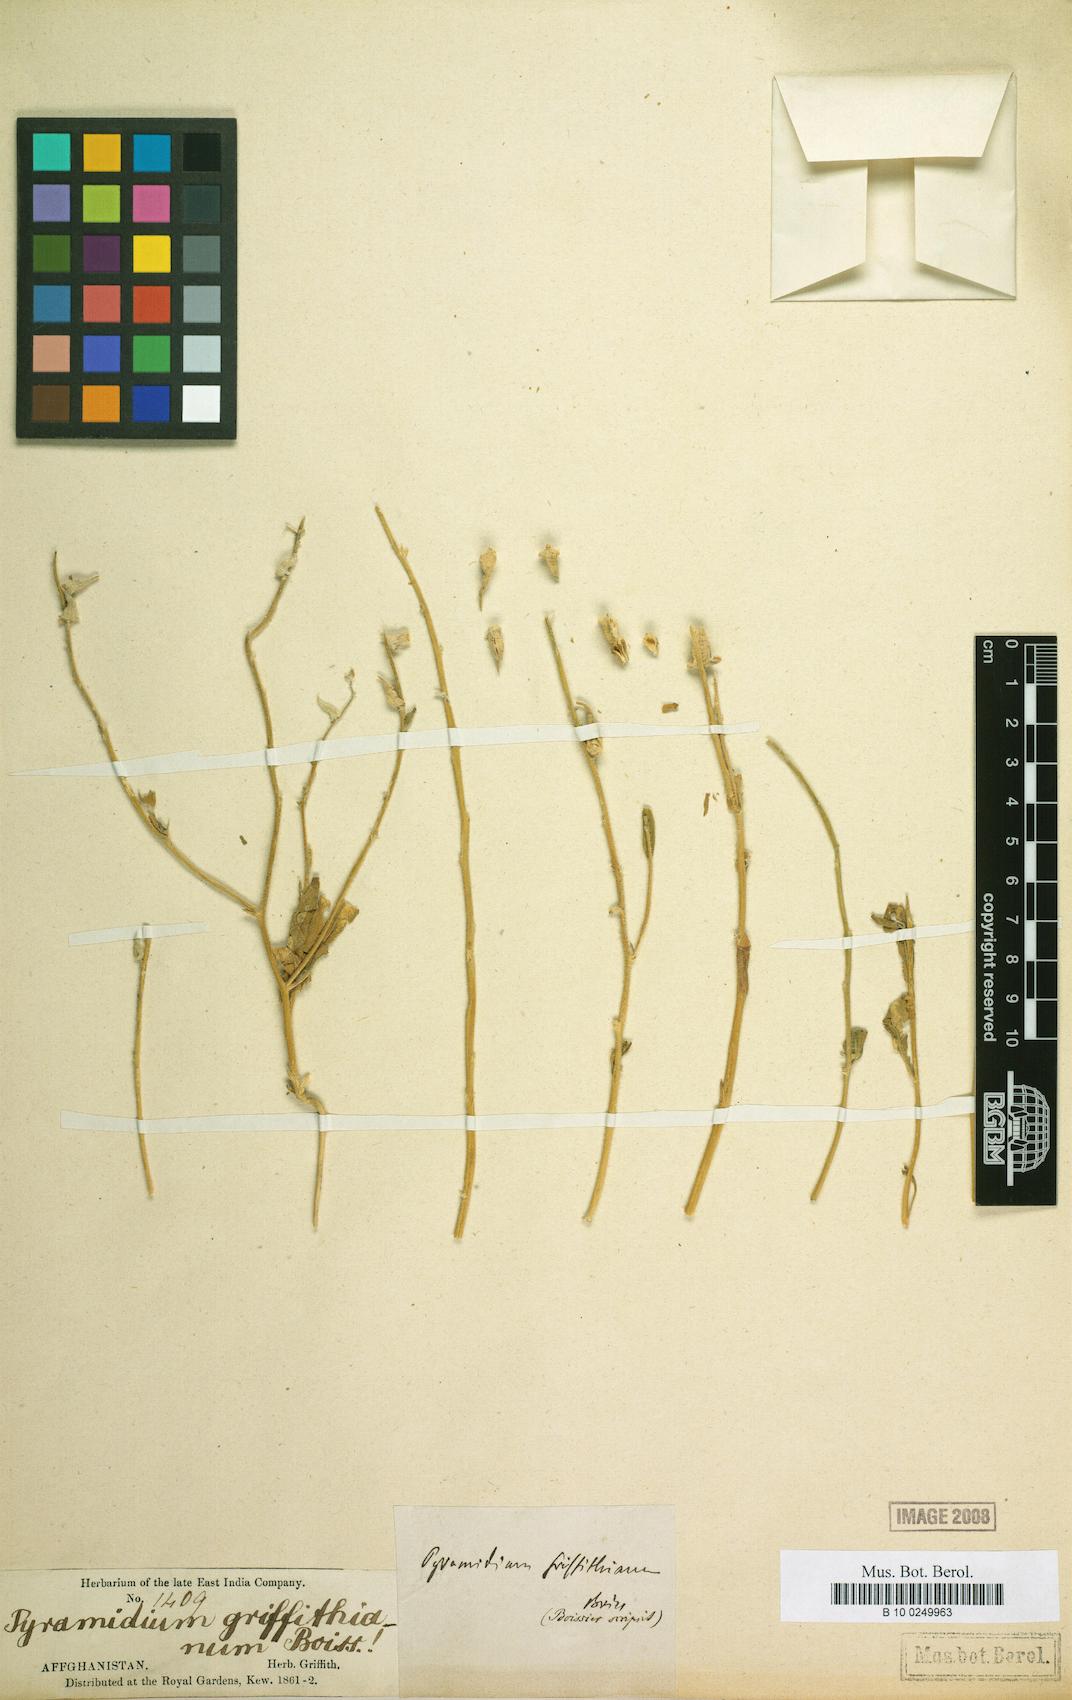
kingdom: Plantae
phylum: Tracheophyta
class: Magnoliopsida
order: Brassicales
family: Brassicaceae
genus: Veselskya
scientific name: Veselskya griffithiana
